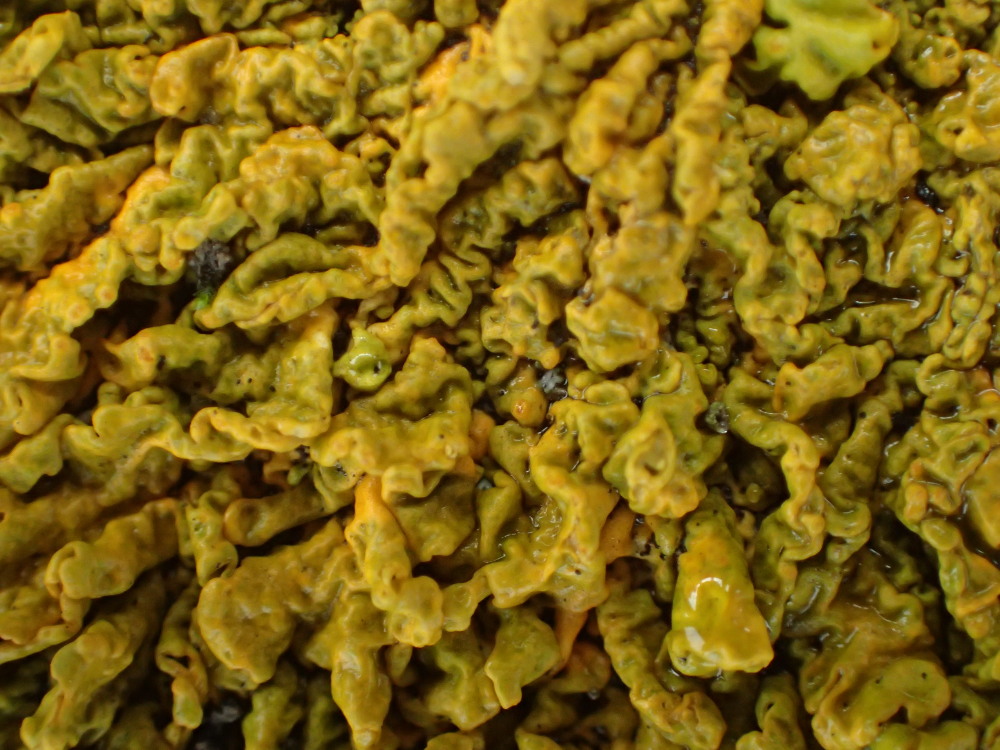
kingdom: Fungi
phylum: Ascomycota
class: Lecanoromycetes
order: Teloschistales
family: Teloschistaceae
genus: Xanthoria
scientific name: Xanthoria calcicola
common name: vortet væggelav
